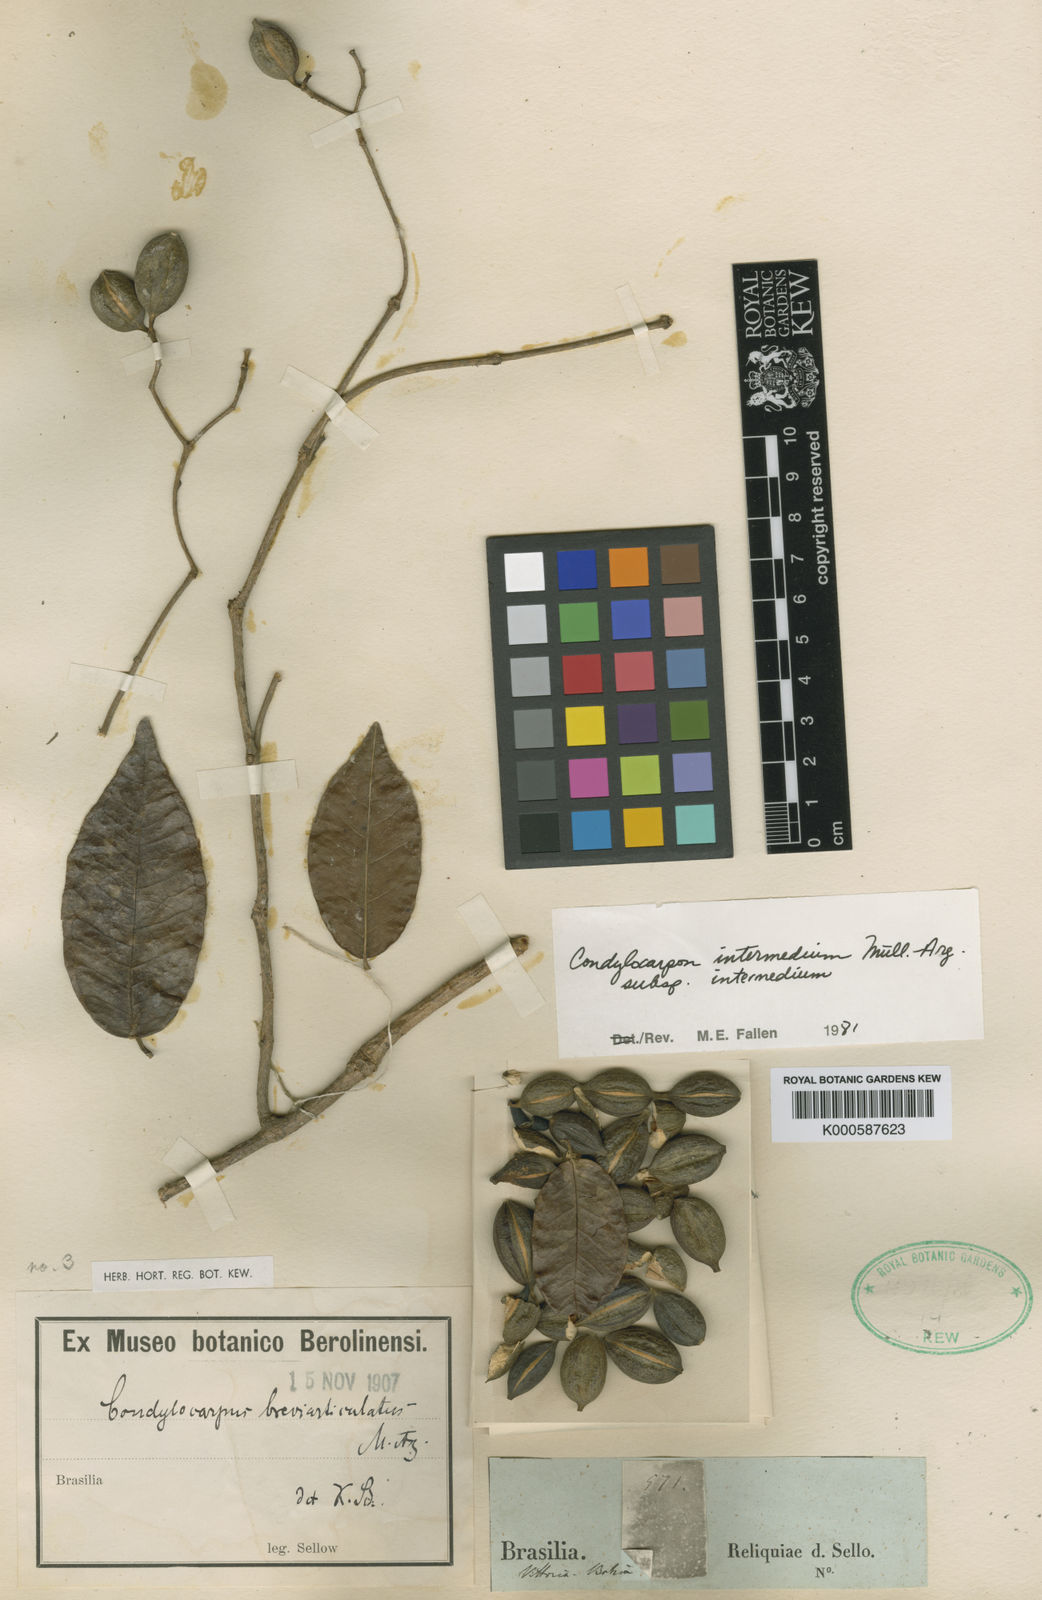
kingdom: Plantae
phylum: Tracheophyta
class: Magnoliopsida
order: Gentianales
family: Apocynaceae
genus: Condylocarpon
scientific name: Condylocarpon
